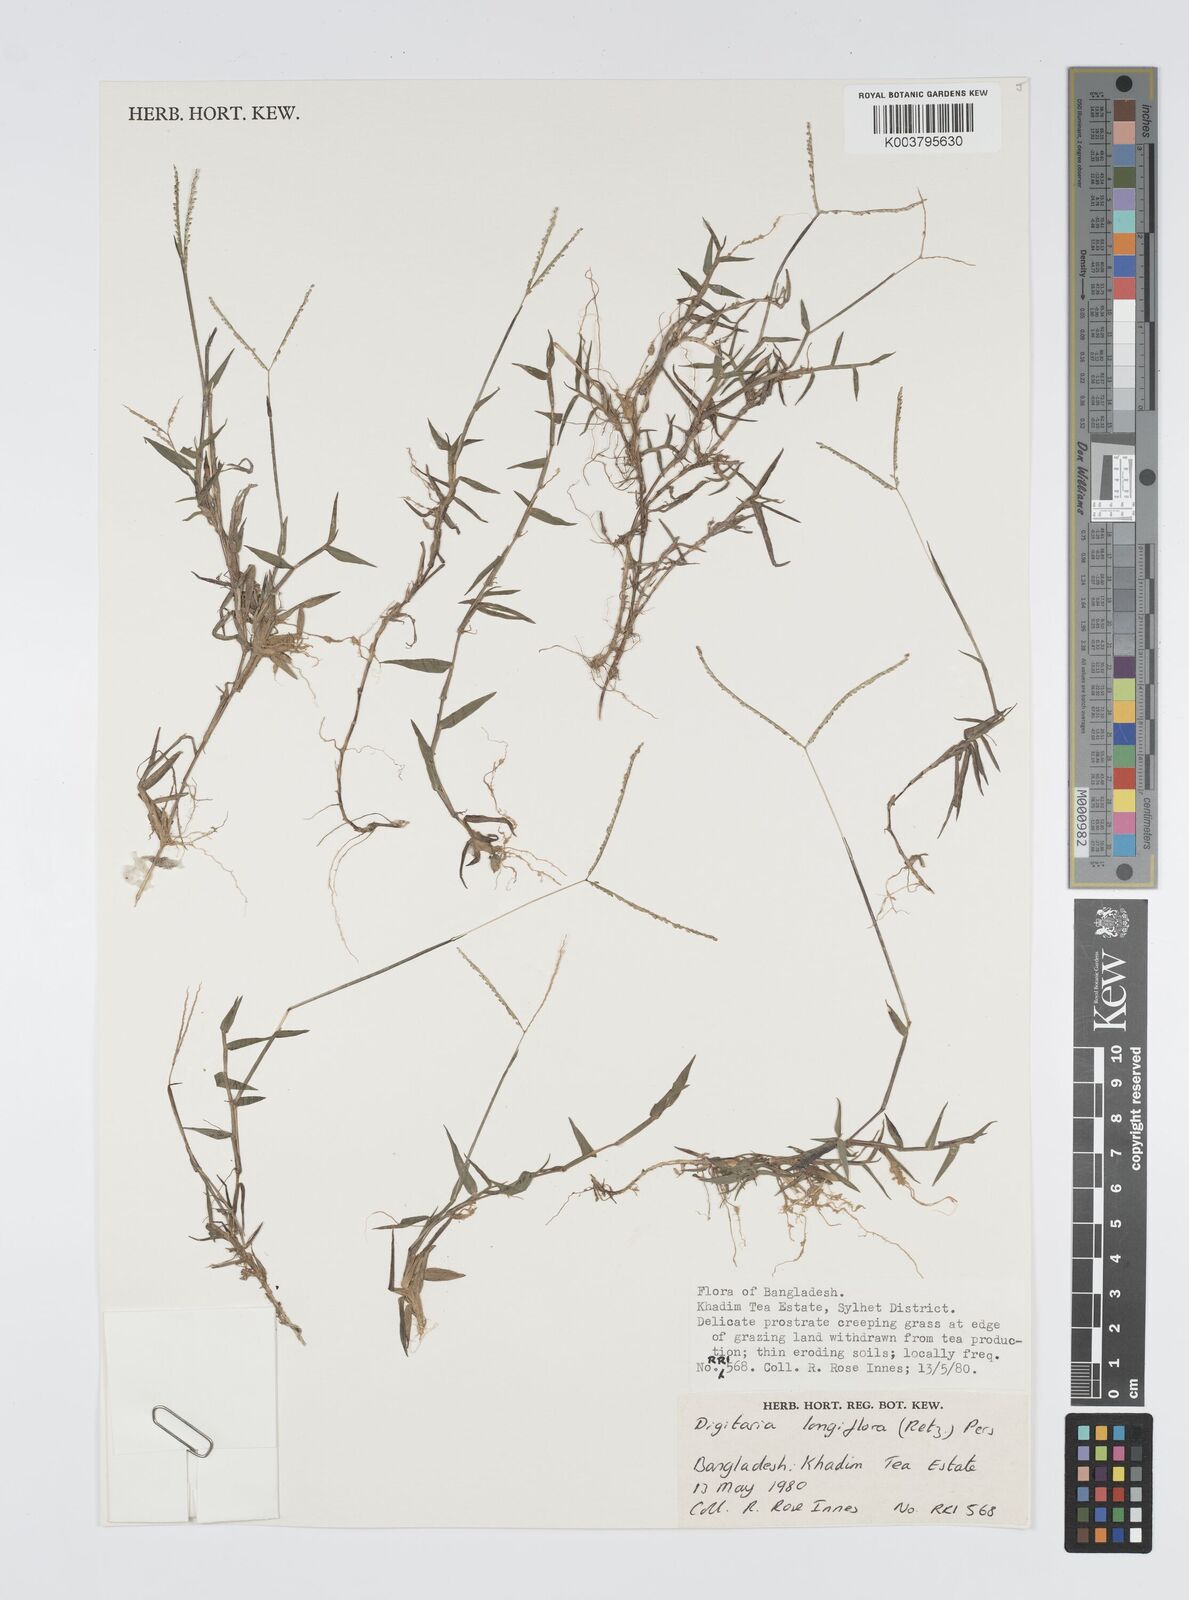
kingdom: Plantae
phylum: Tracheophyta
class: Liliopsida
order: Poales
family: Poaceae
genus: Digitaria
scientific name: Digitaria longiflora
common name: Wire crabgrass
